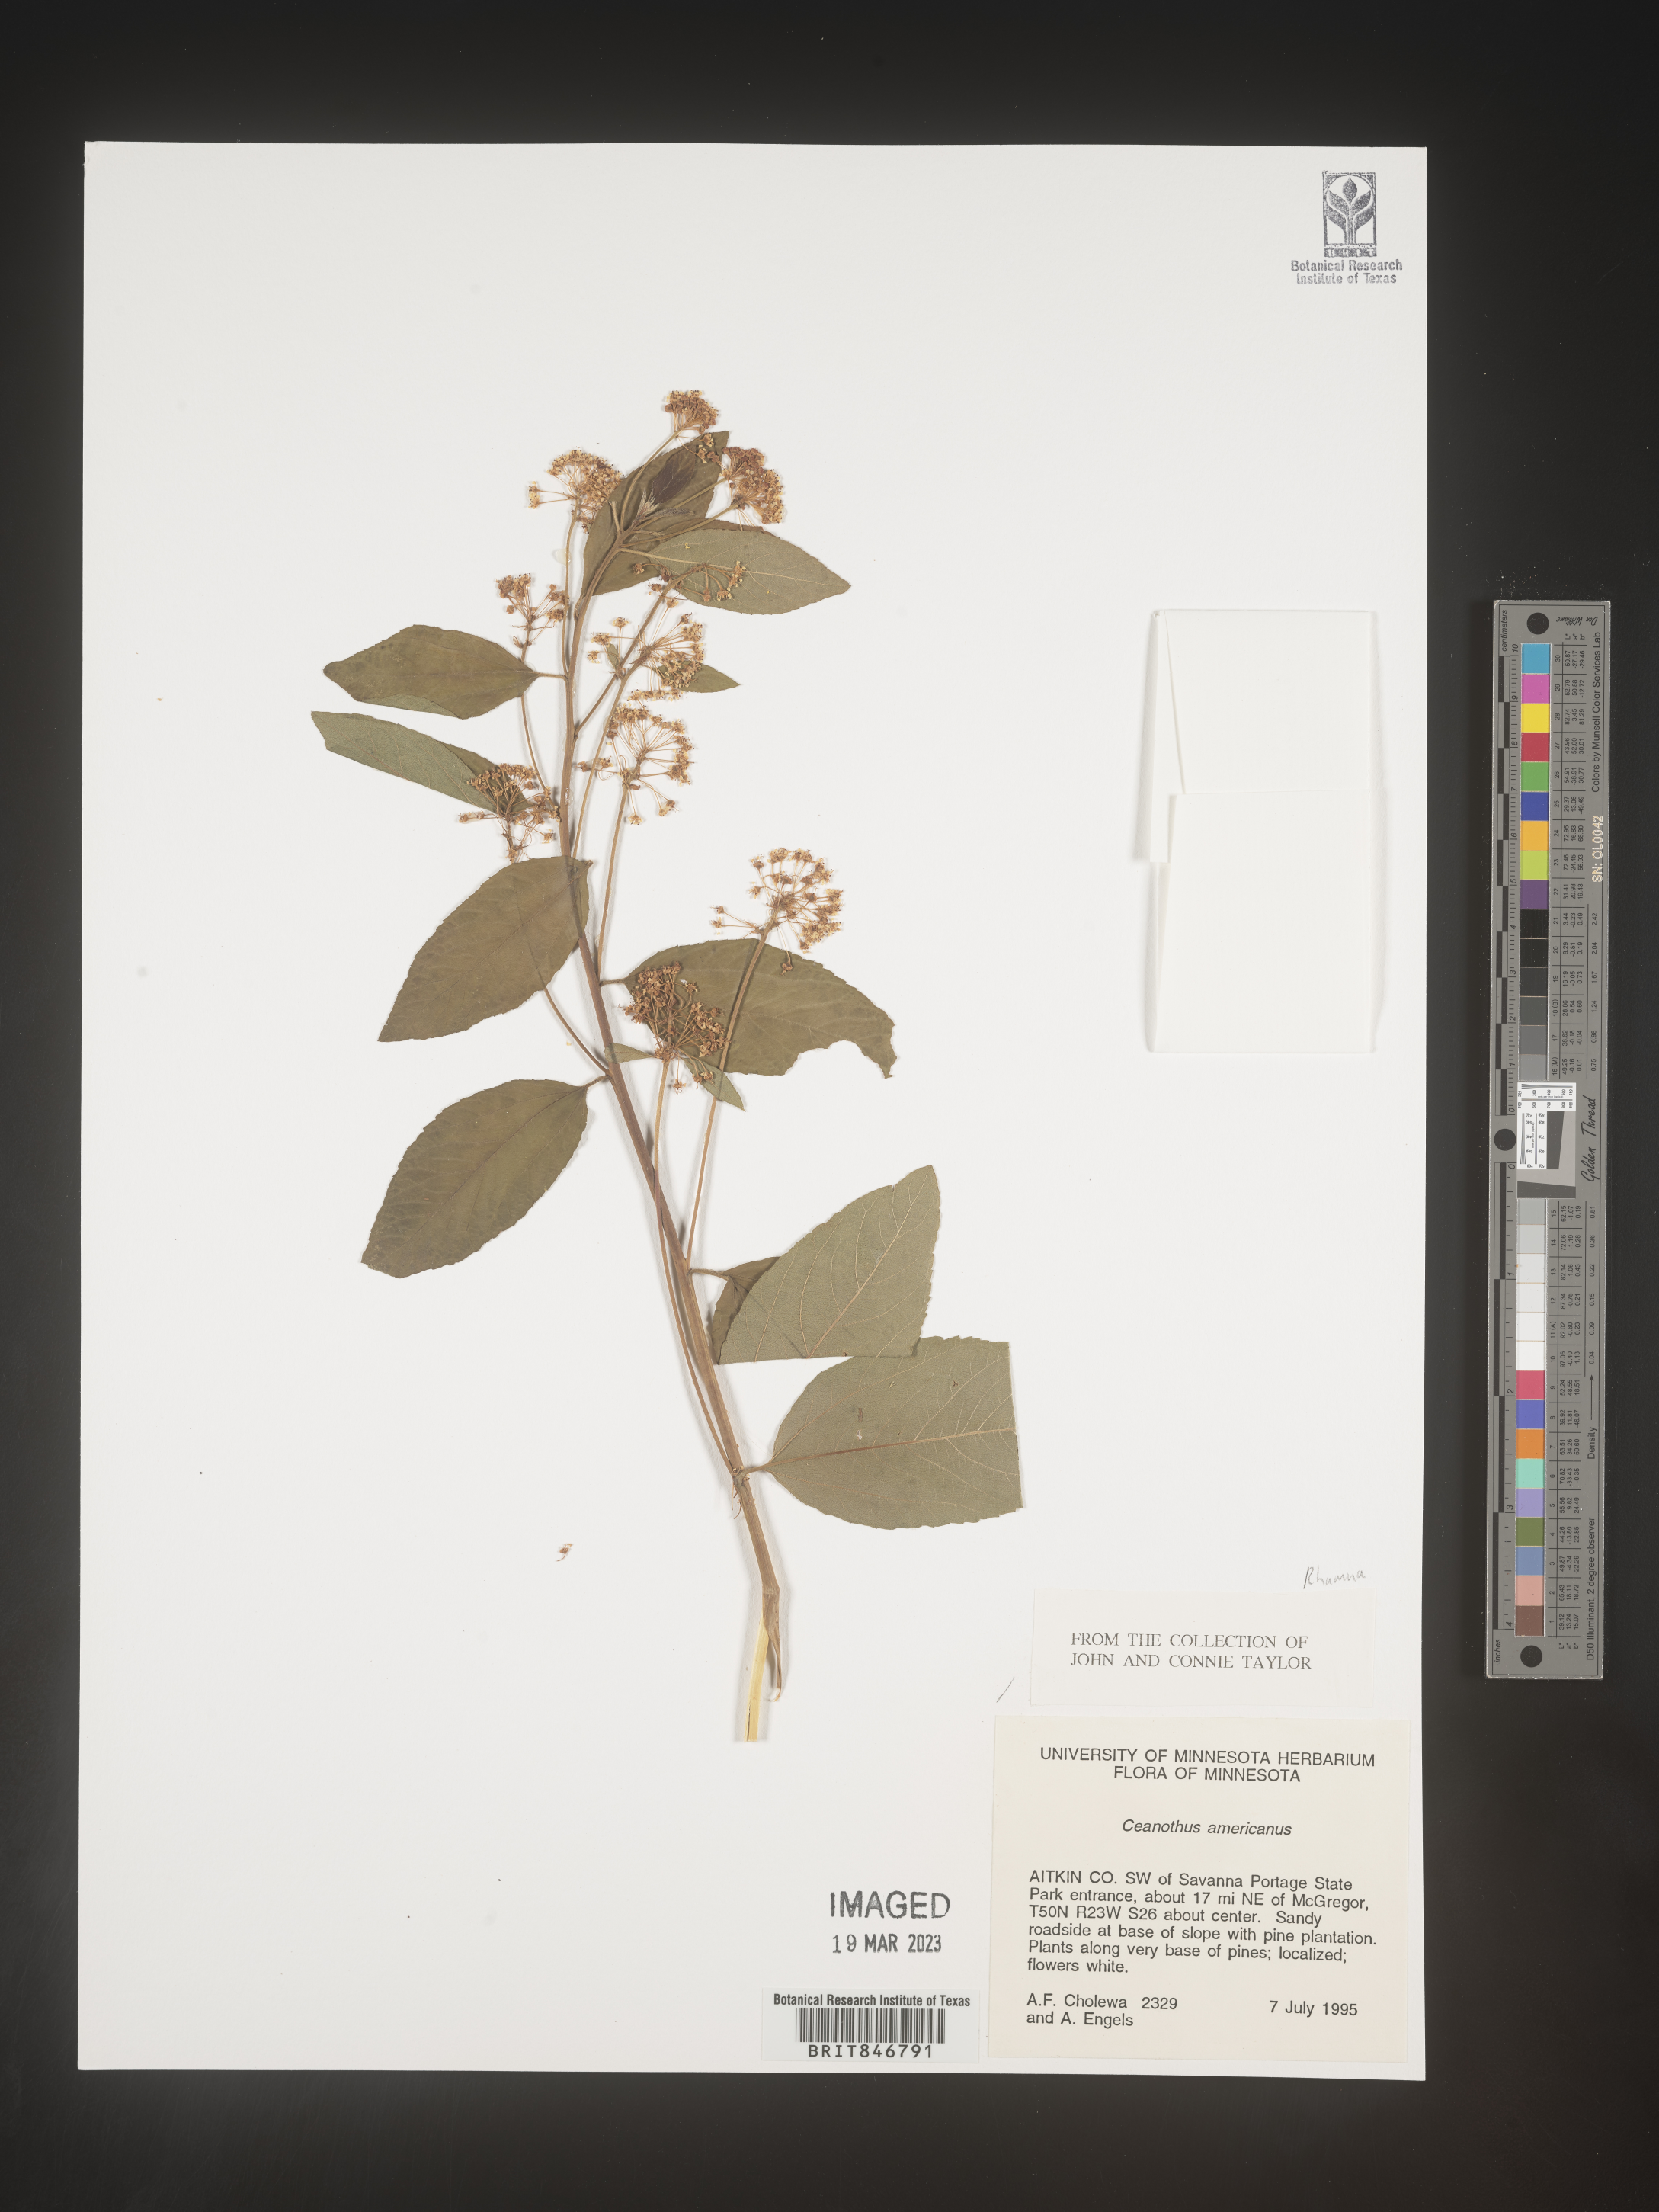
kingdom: Plantae
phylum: Tracheophyta
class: Magnoliopsida
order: Rosales
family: Rhamnaceae
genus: Ceanothus
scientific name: Ceanothus americanus
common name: Redroot
